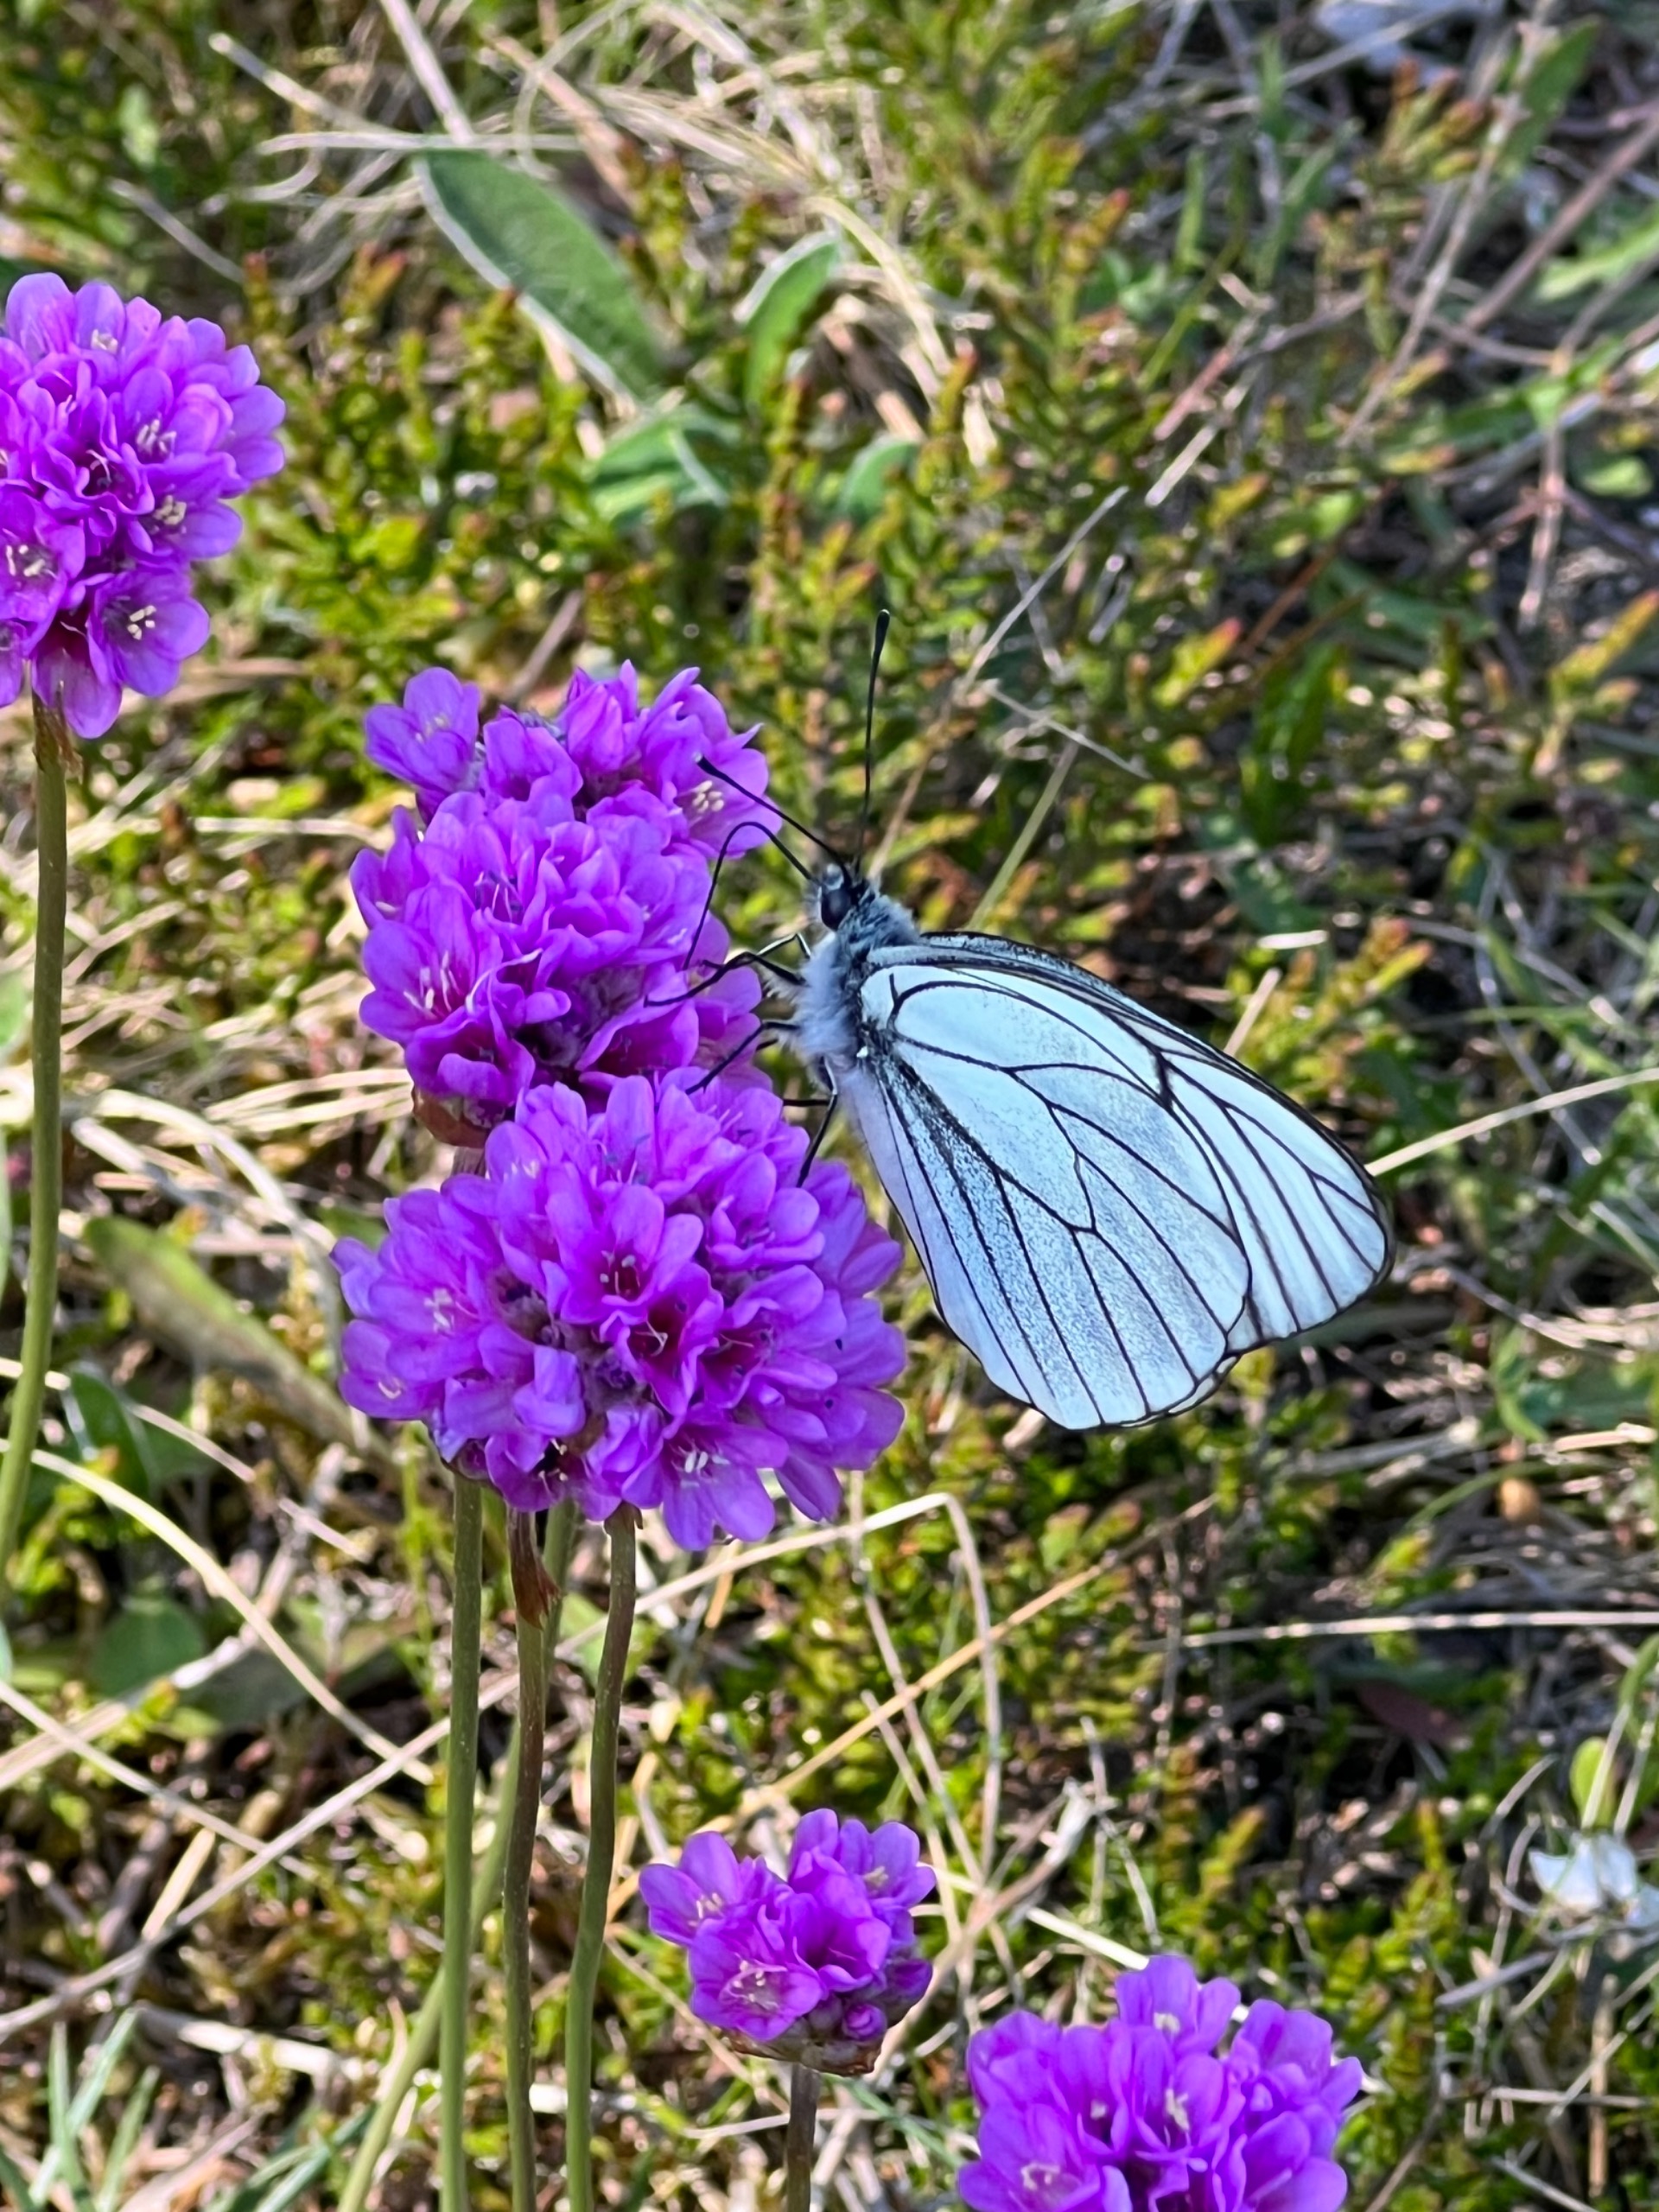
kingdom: Animalia
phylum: Arthropoda
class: Insecta
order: Lepidoptera
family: Pieridae
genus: Aporia
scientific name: Aporia crataegi
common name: Sortåret hvidvinge
